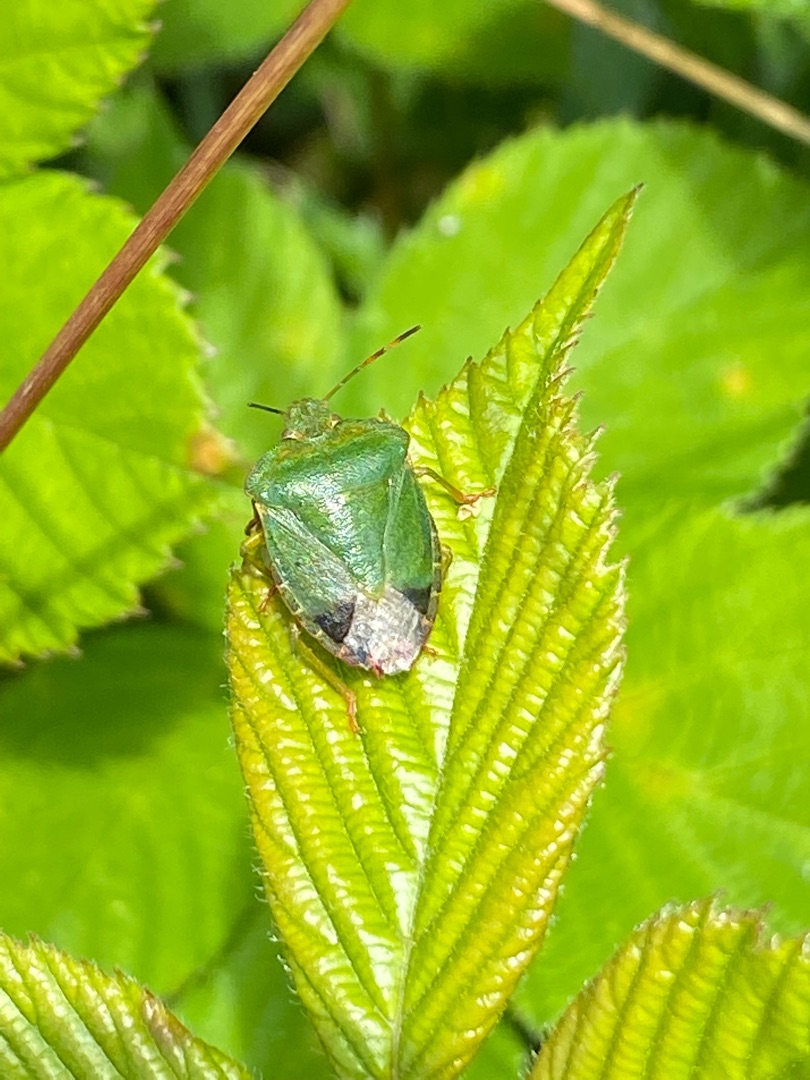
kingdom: Animalia
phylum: Arthropoda
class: Insecta
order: Hemiptera
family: Pentatomidae
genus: Palomena
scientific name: Palomena prasina
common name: Grøn bredtæge
